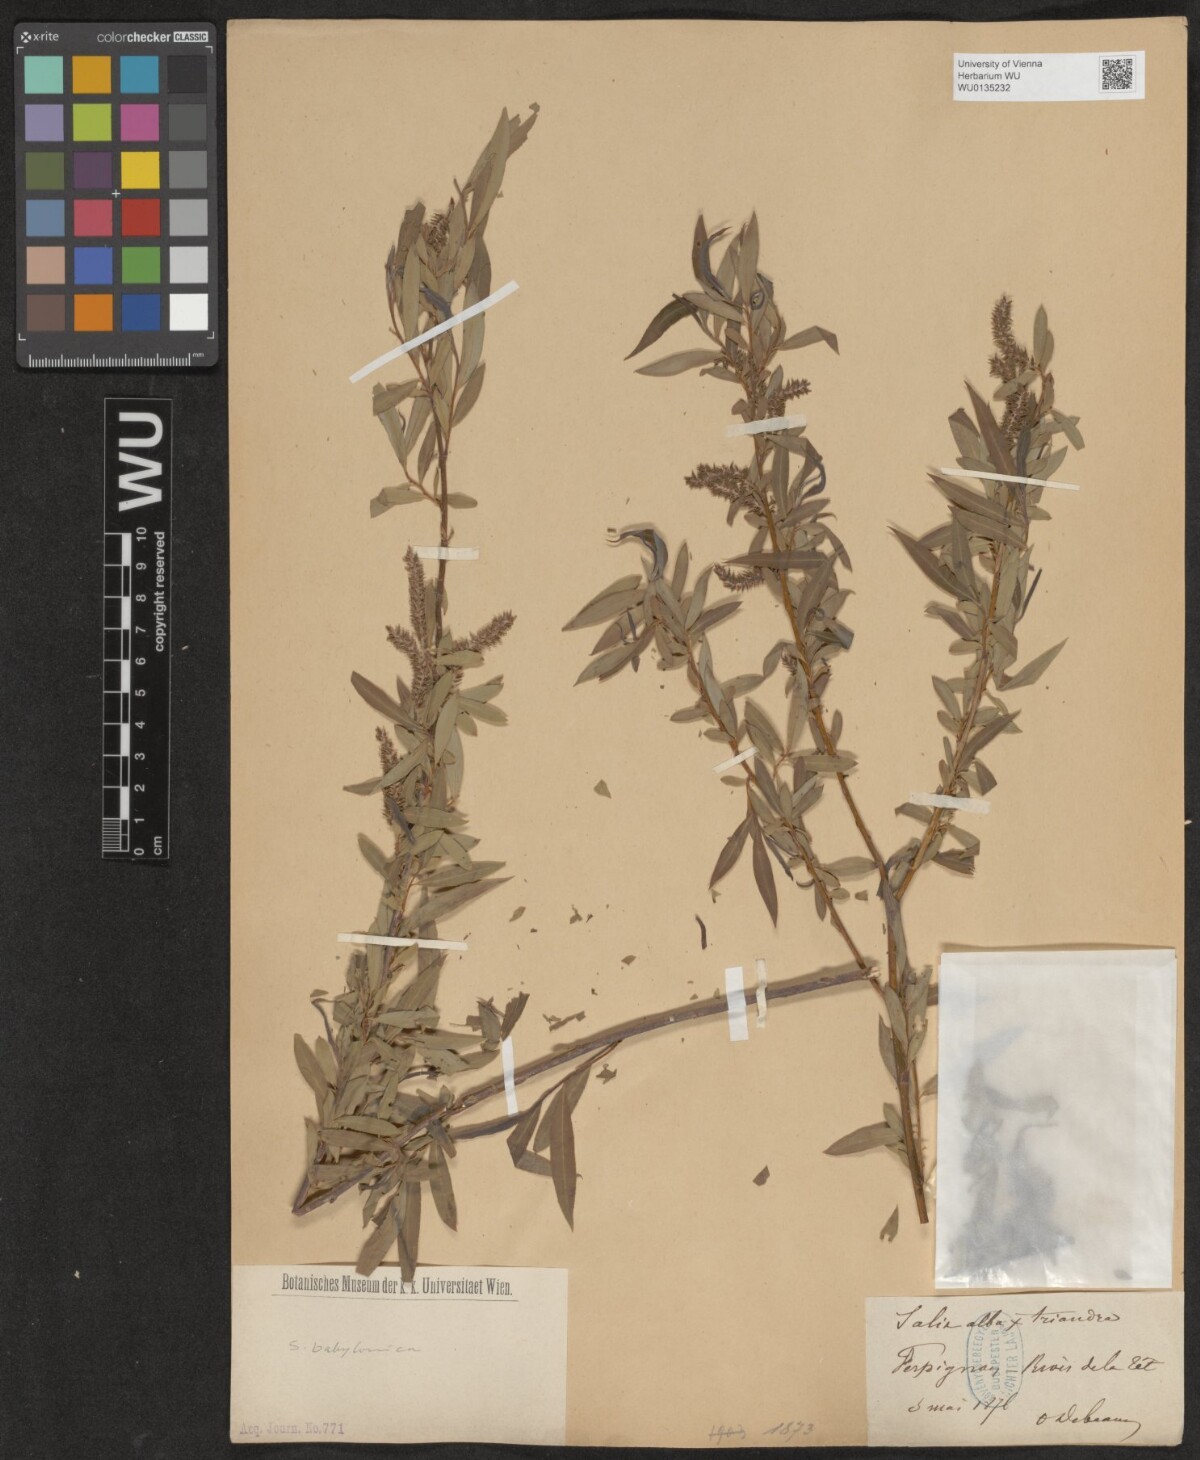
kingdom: Plantae
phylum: Tracheophyta
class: Magnoliopsida
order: Malpighiales
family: Salicaceae
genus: Salix
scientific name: Salix babylonica
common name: Weeping willow
